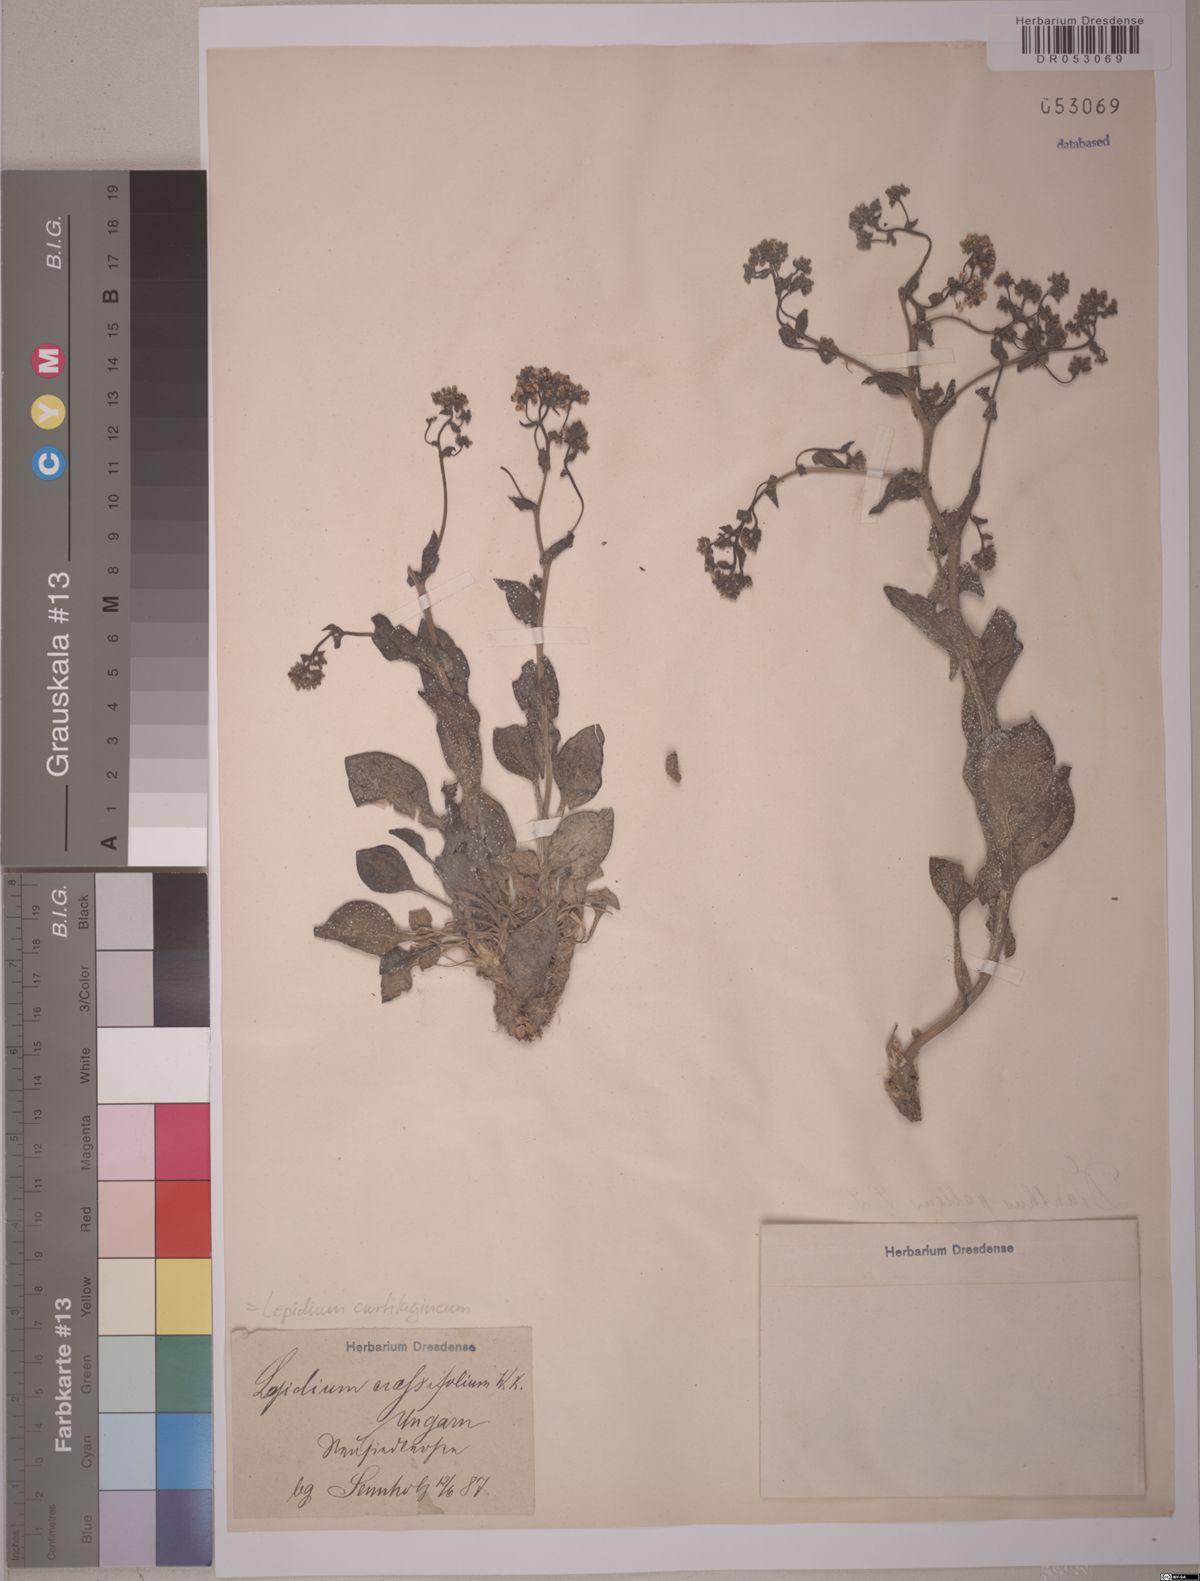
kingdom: Plantae
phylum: Tracheophyta
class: Magnoliopsida
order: Brassicales
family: Brassicaceae
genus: Lepidium
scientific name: Lepidium cartilagineum
